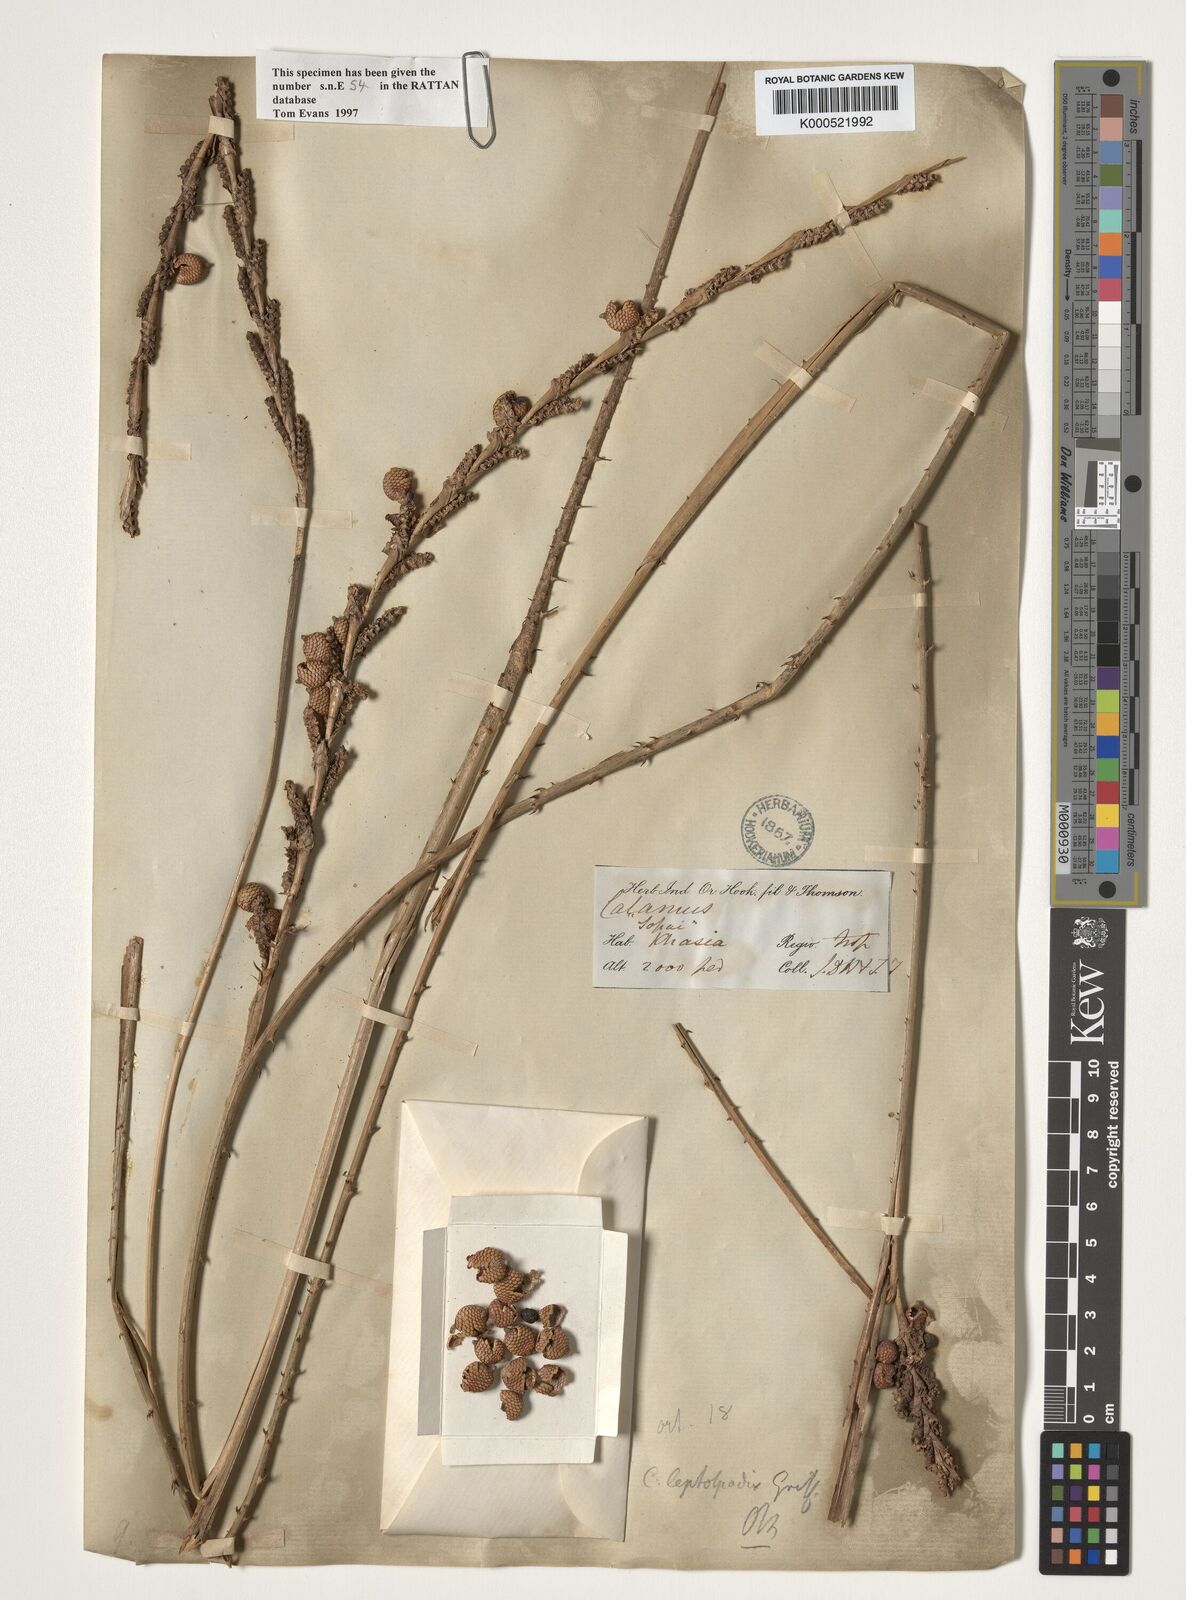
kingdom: Plantae
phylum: Tracheophyta
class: Liliopsida
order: Arecales
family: Arecaceae
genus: Calamus
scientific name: Calamus leptospadix
